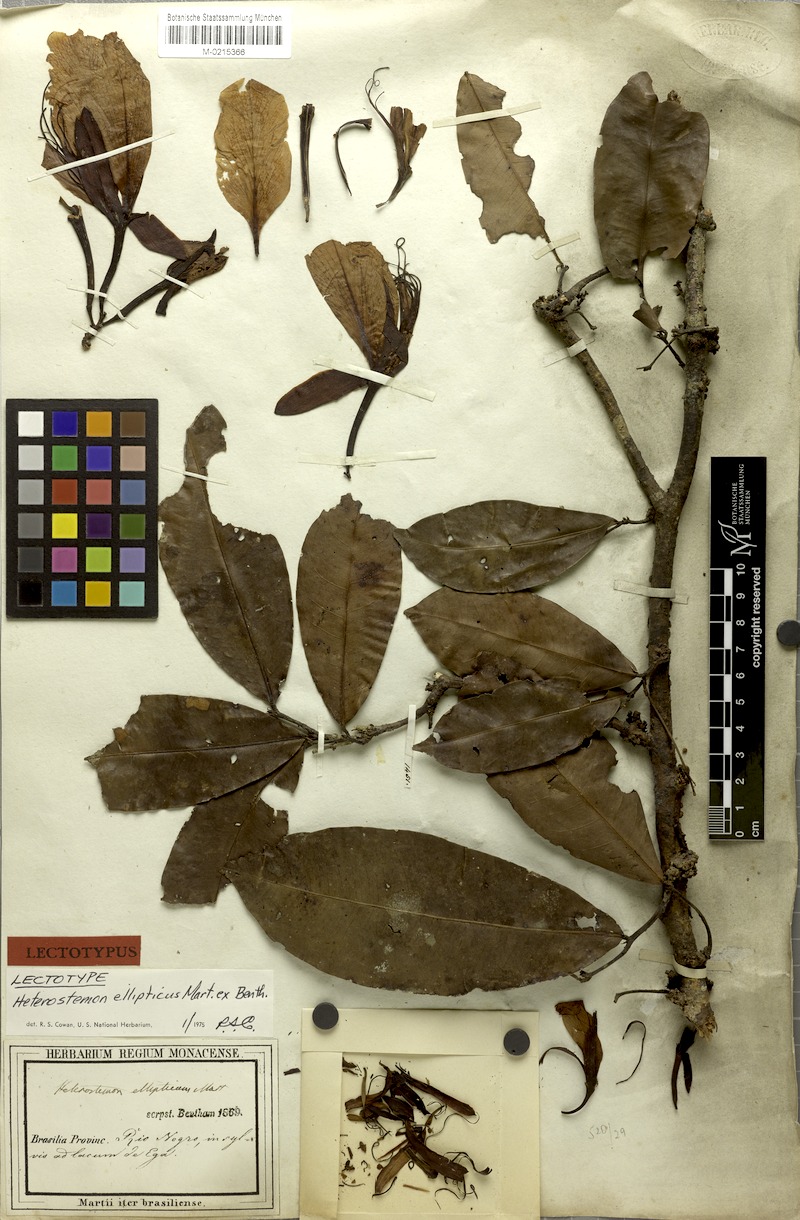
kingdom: Plantae
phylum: Tracheophyta
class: Magnoliopsida
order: Fabales
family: Fabaceae
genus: Heterostemon
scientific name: Heterostemon ellipticus
